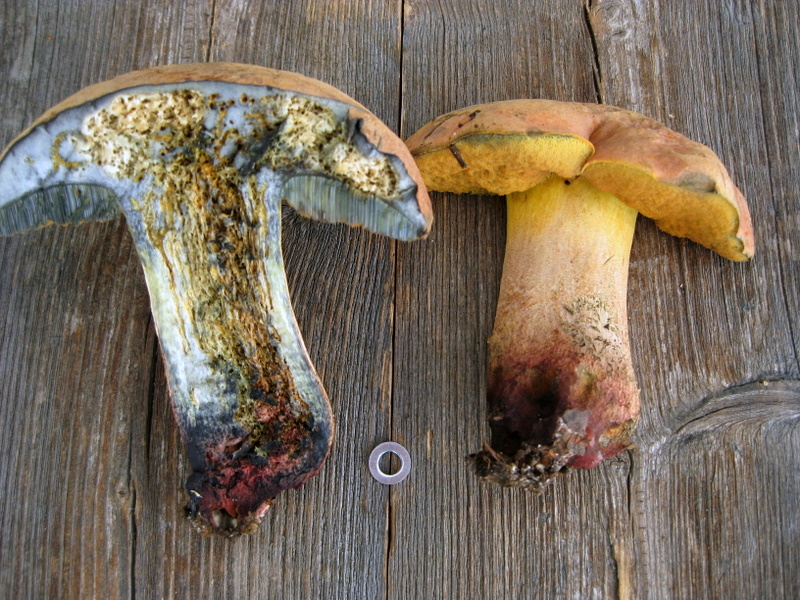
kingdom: Fungi
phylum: Basidiomycota
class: Agaricomycetes
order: Boletales
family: Boletaceae
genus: Suillellus
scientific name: Suillellus queletii
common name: glatstokket indigorørhat
